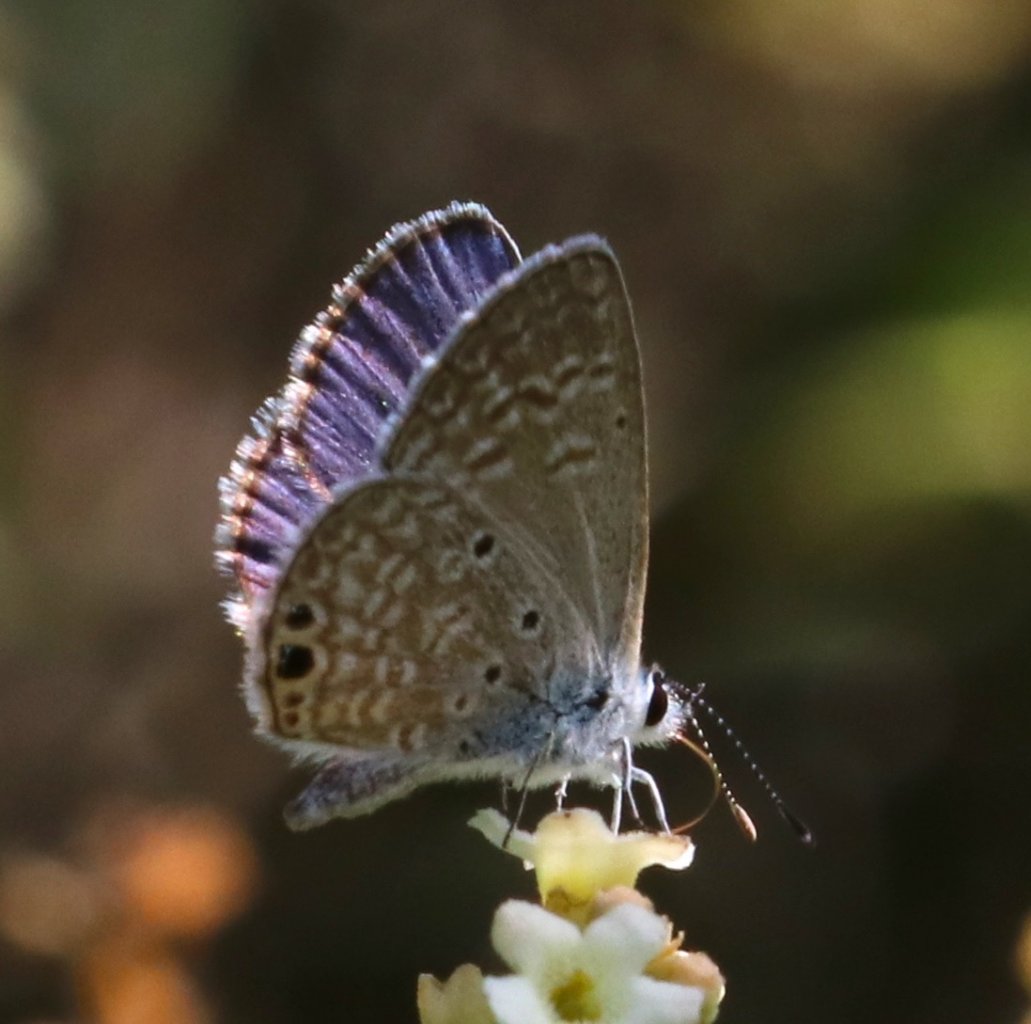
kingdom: Animalia
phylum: Arthropoda
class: Insecta
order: Lepidoptera
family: Lycaenidae
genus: Hemiargus
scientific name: Hemiargus ceraunus
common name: Ceraunus Blue
